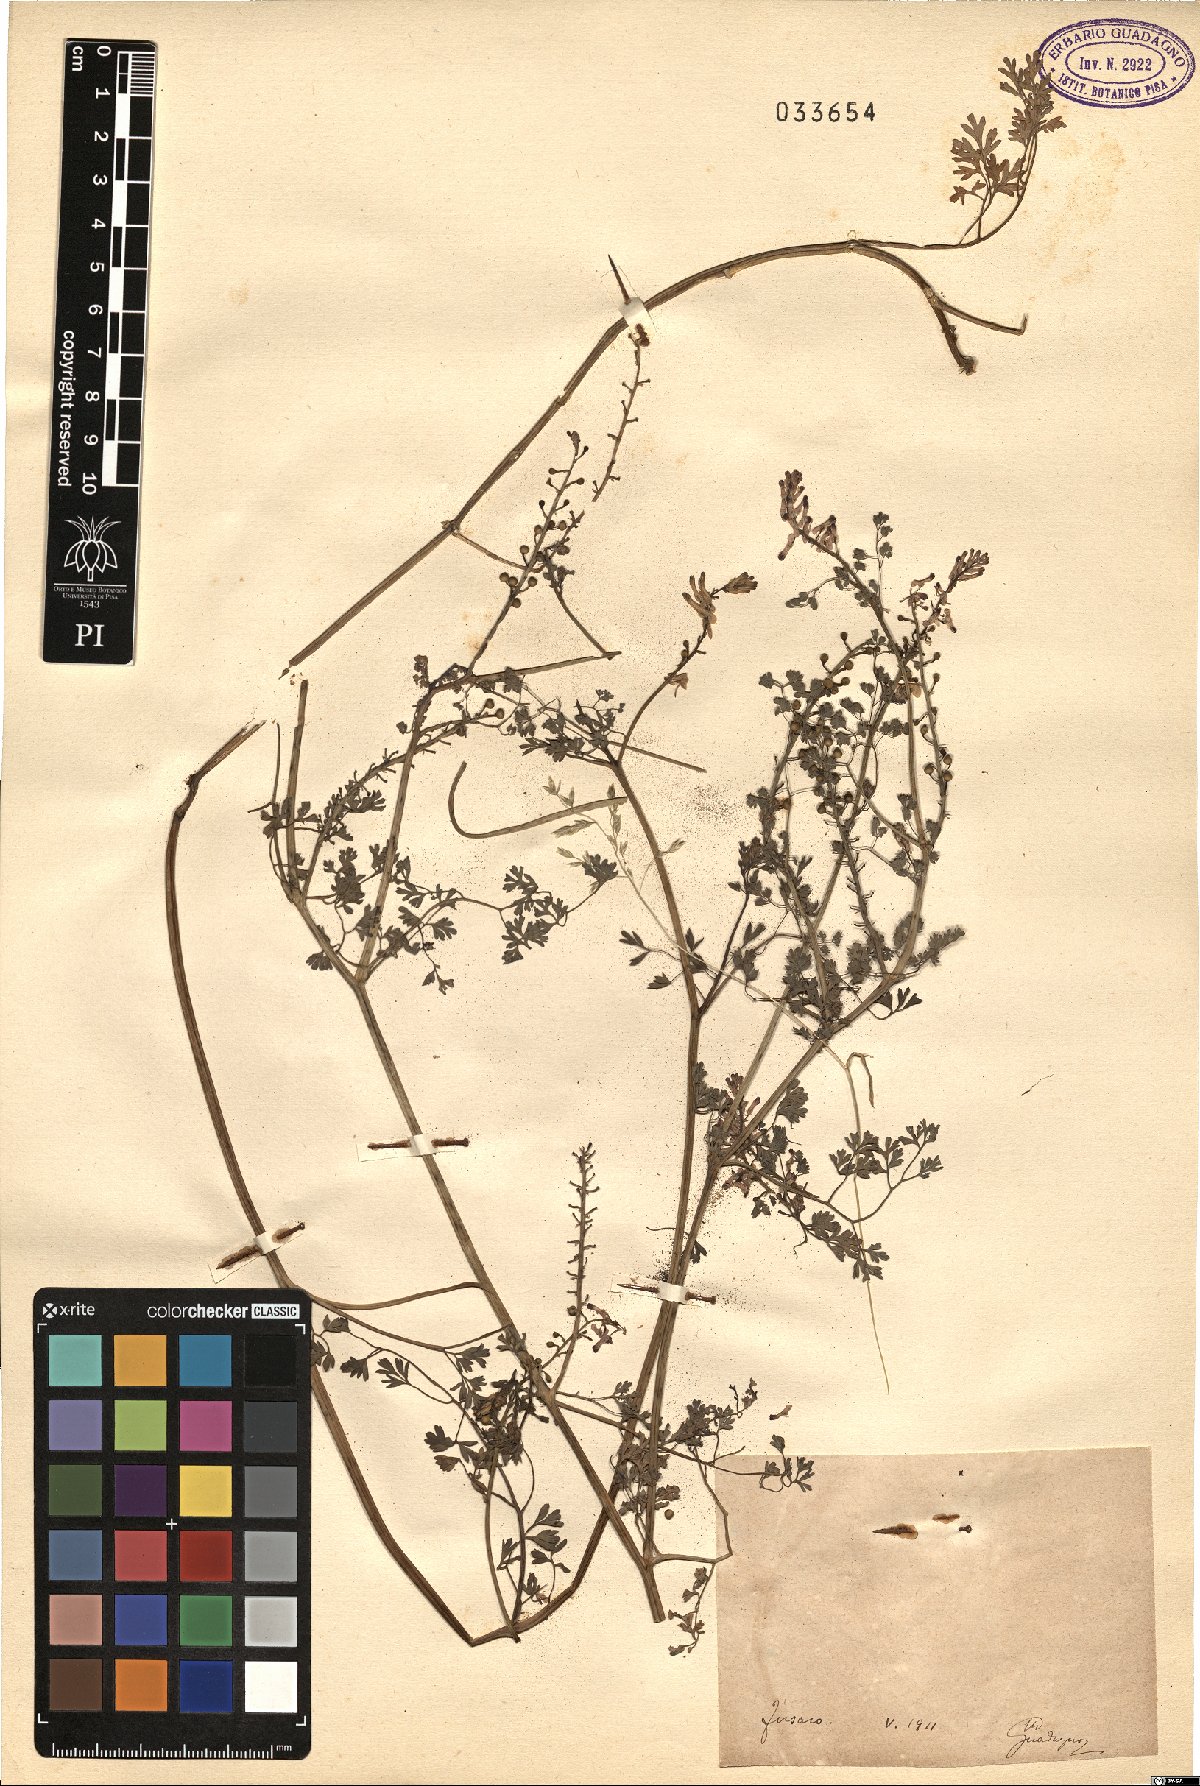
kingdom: Plantae
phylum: Tracheophyta
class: Magnoliopsida
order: Ranunculales
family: Papaveraceae
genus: Fumaria
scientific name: Fumaria
